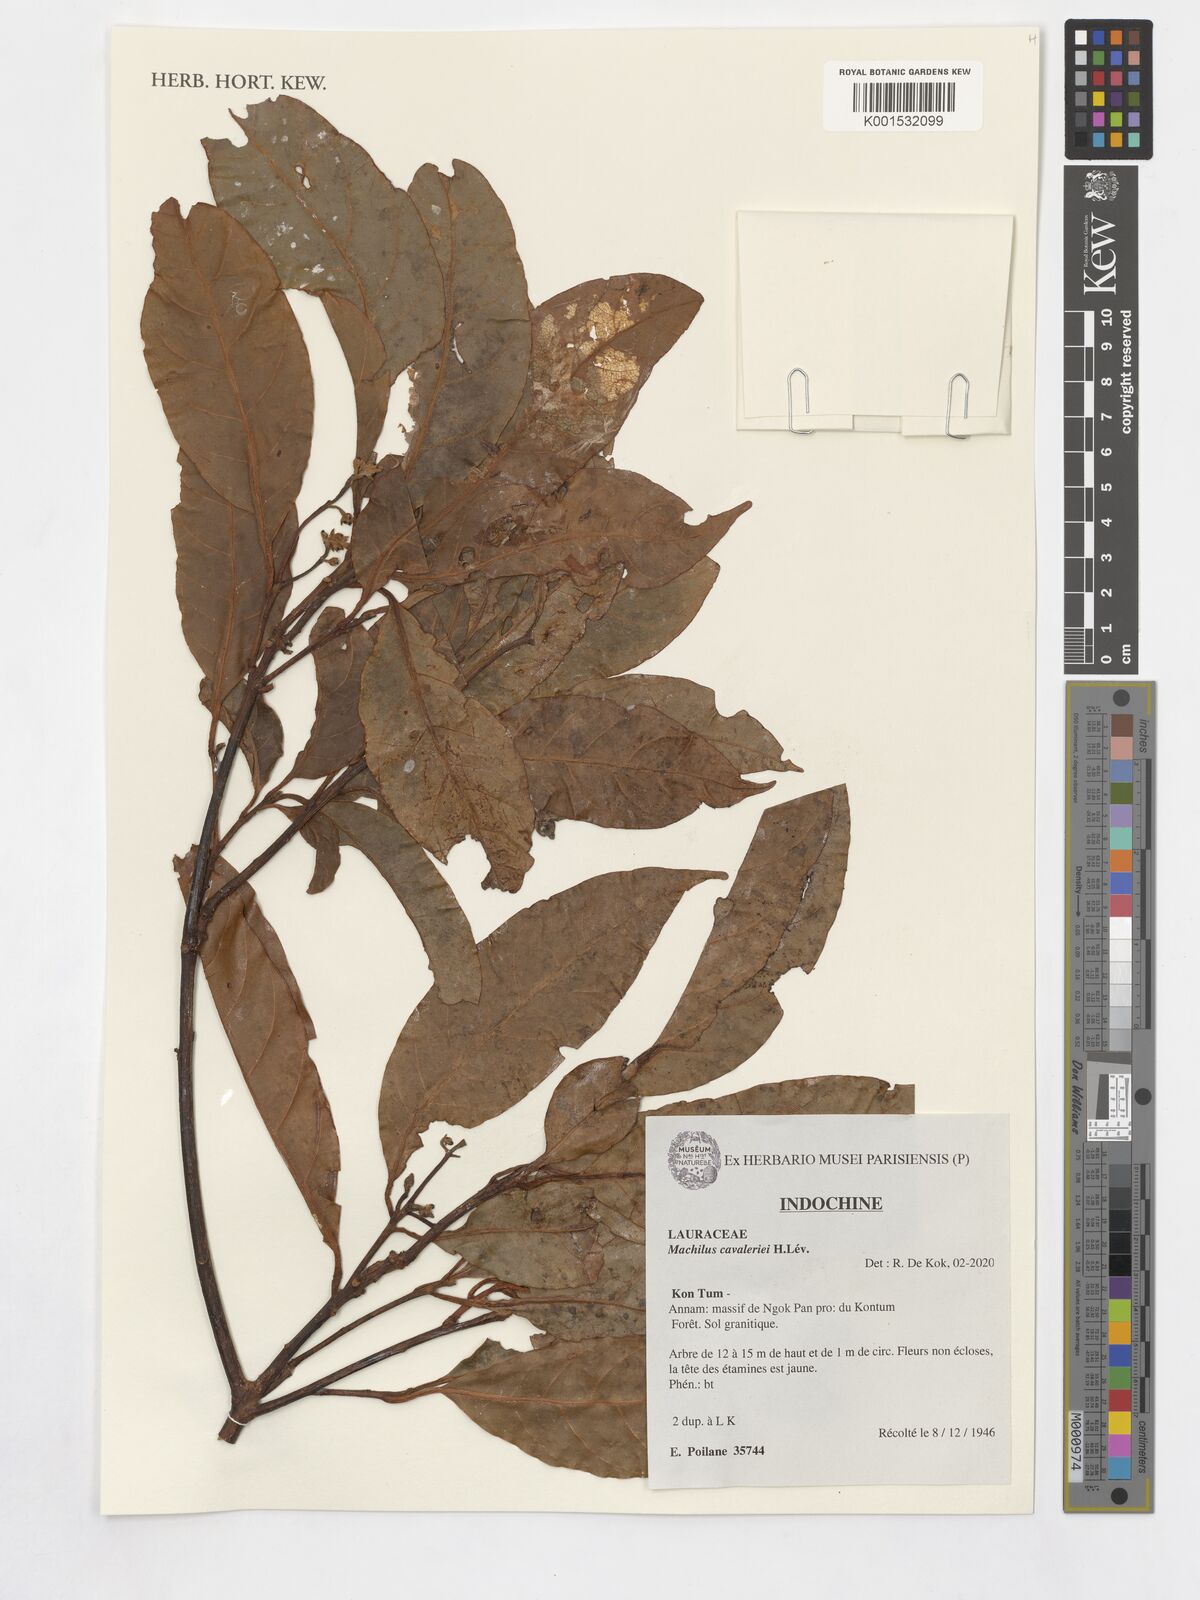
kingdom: Plantae
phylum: Tracheophyta
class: Magnoliopsida
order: Laurales
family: Lauraceae
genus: Machilus
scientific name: Machilus cavaleriei
